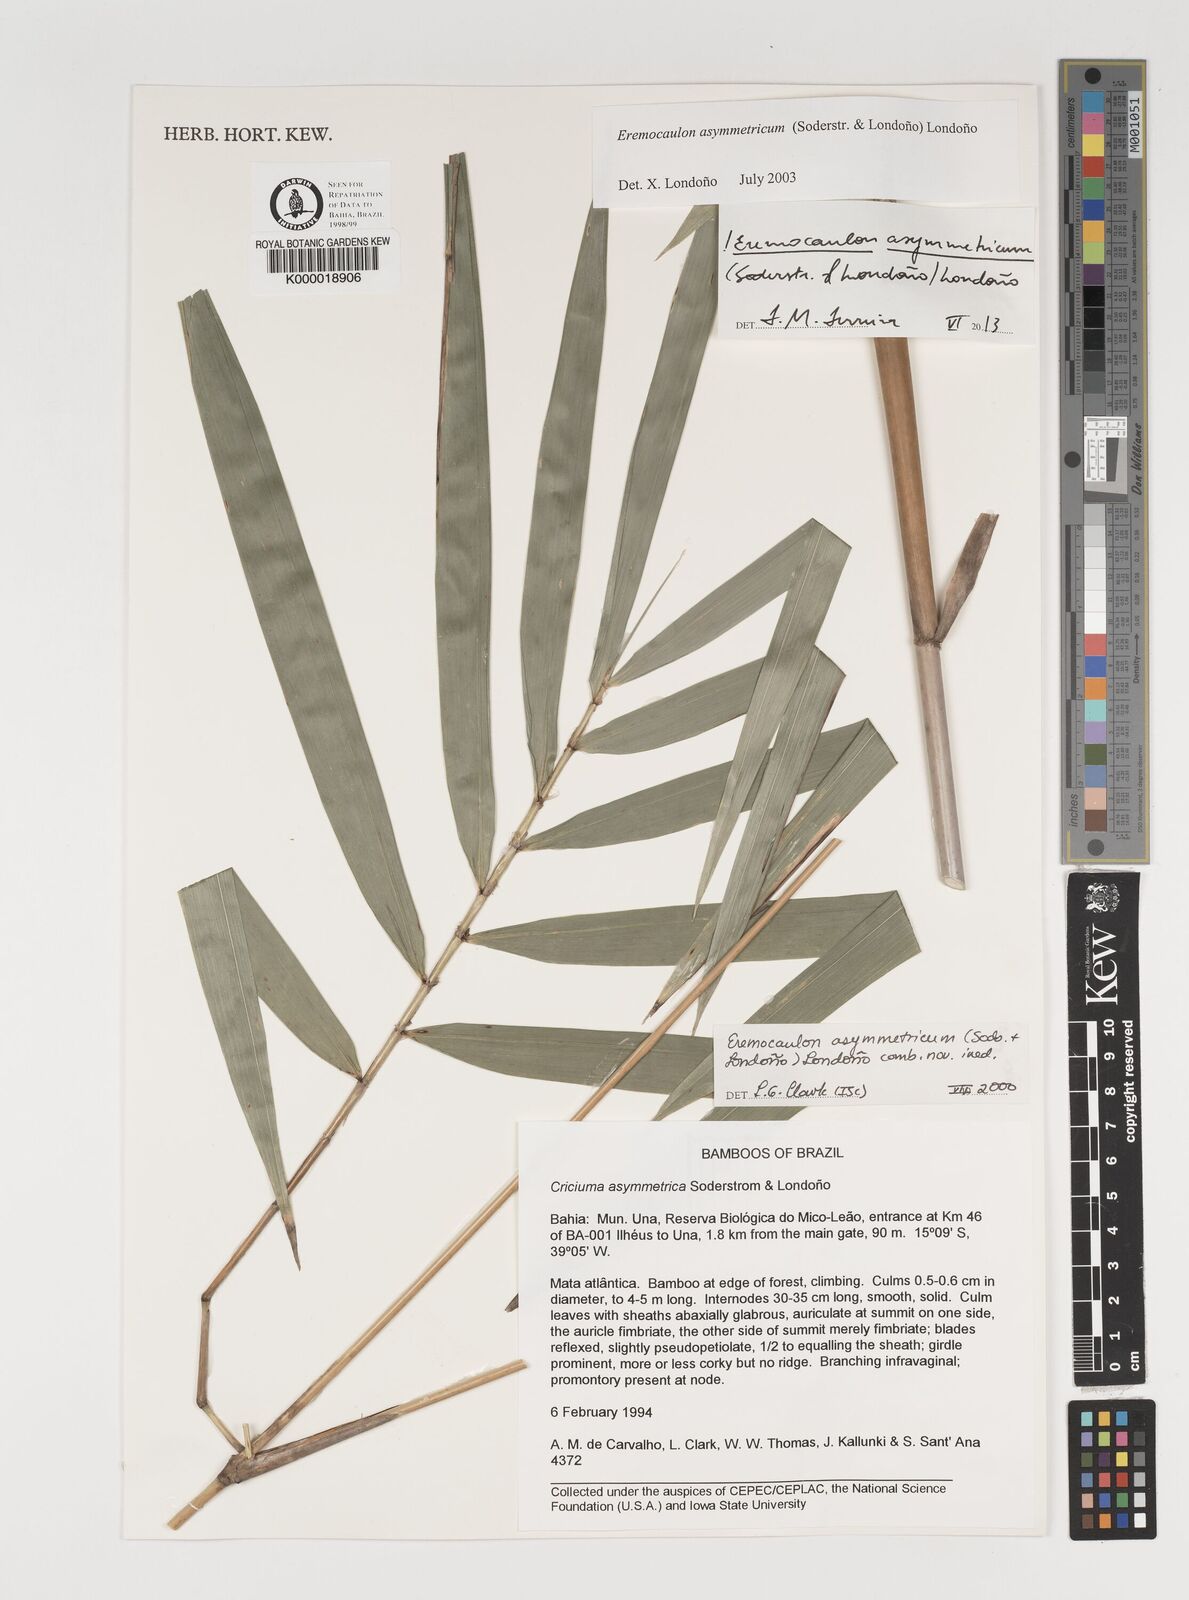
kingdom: Plantae
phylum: Tracheophyta
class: Liliopsida
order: Poales
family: Poaceae
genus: Eremocaulon
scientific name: Eremocaulon
